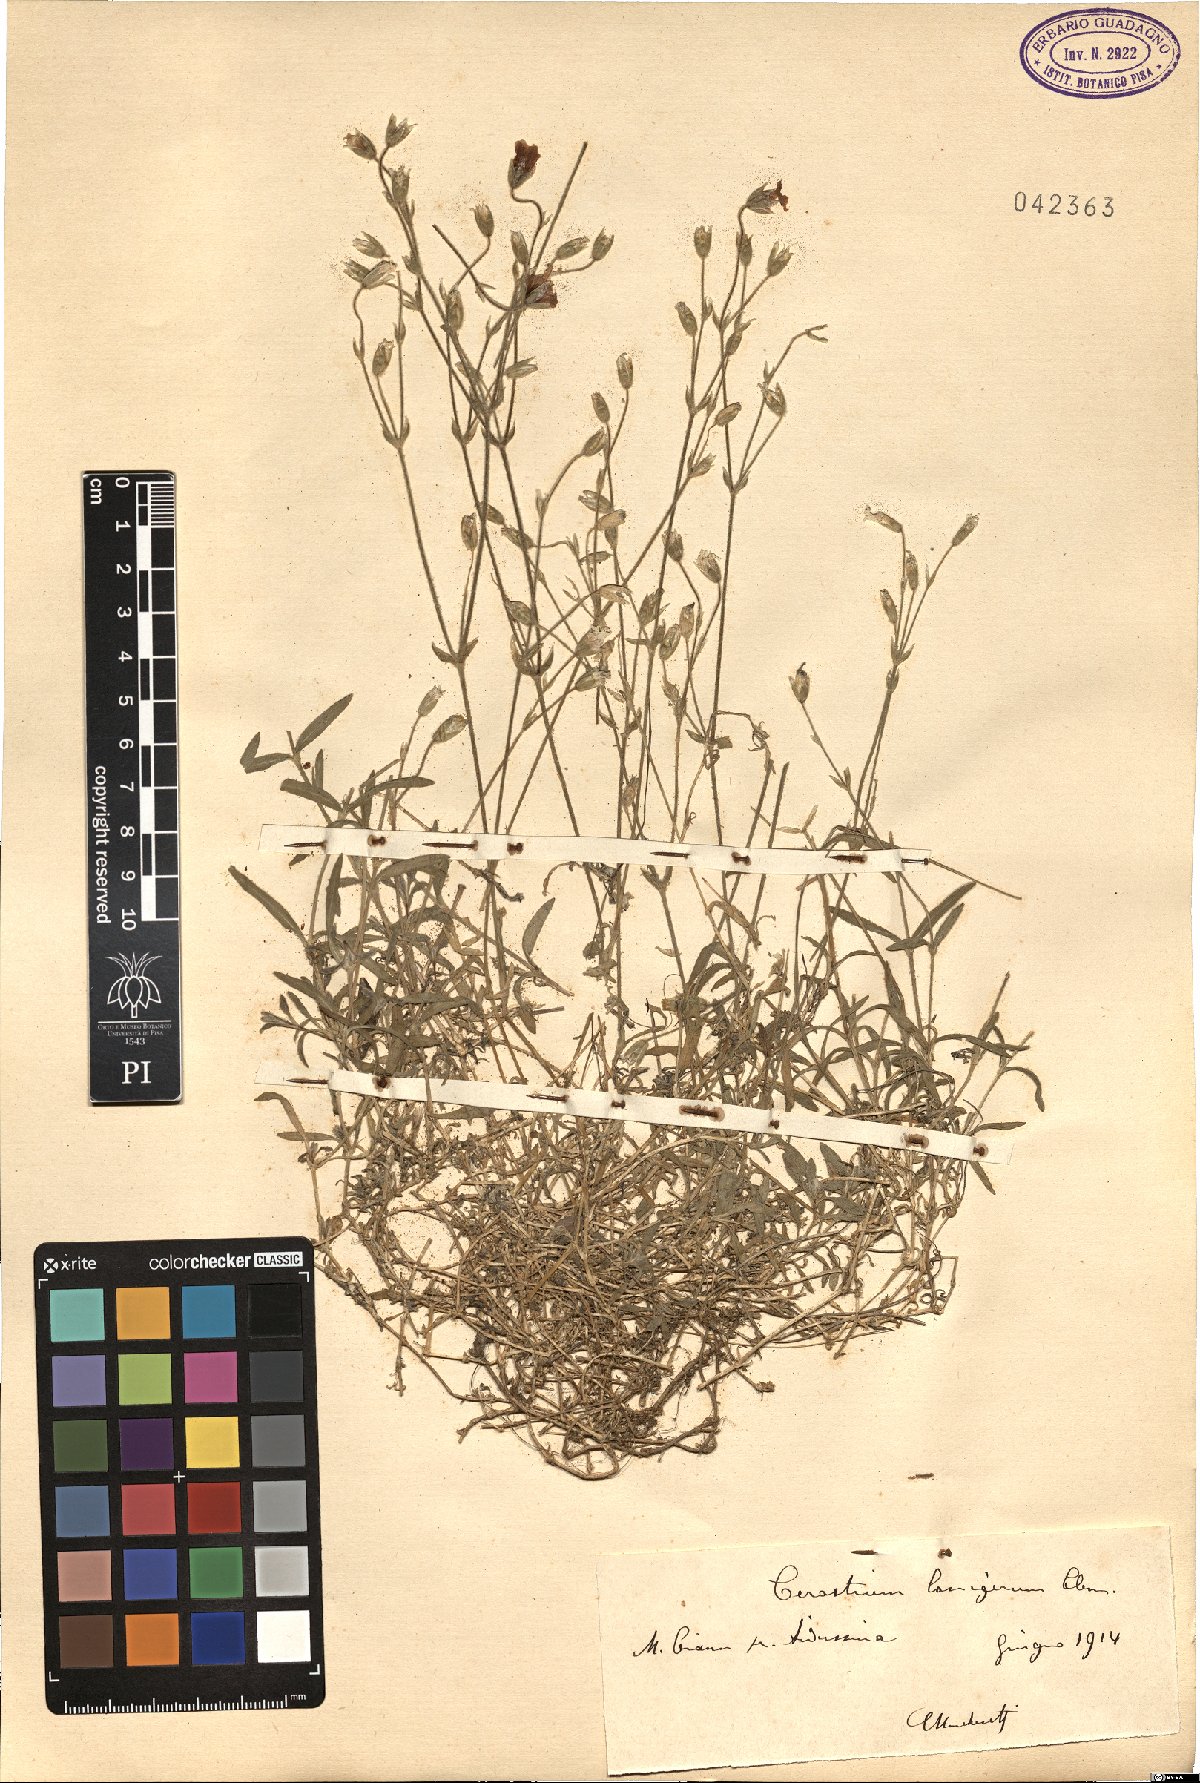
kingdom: Plantae
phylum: Tracheophyta
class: Magnoliopsida
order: Caryophyllales
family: Caryophyllaceae
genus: Cerastium
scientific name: Cerastium decalvans
